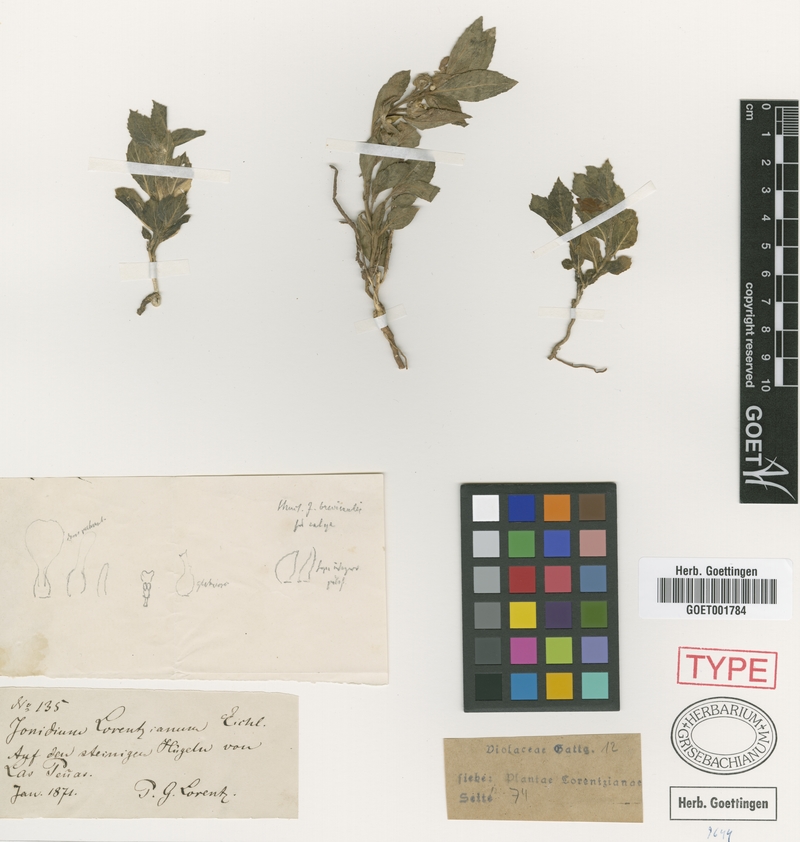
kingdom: Plantae
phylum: Tracheophyta
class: Magnoliopsida
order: Malpighiales
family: Violaceae
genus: Pombalia
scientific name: Pombalia serrata
